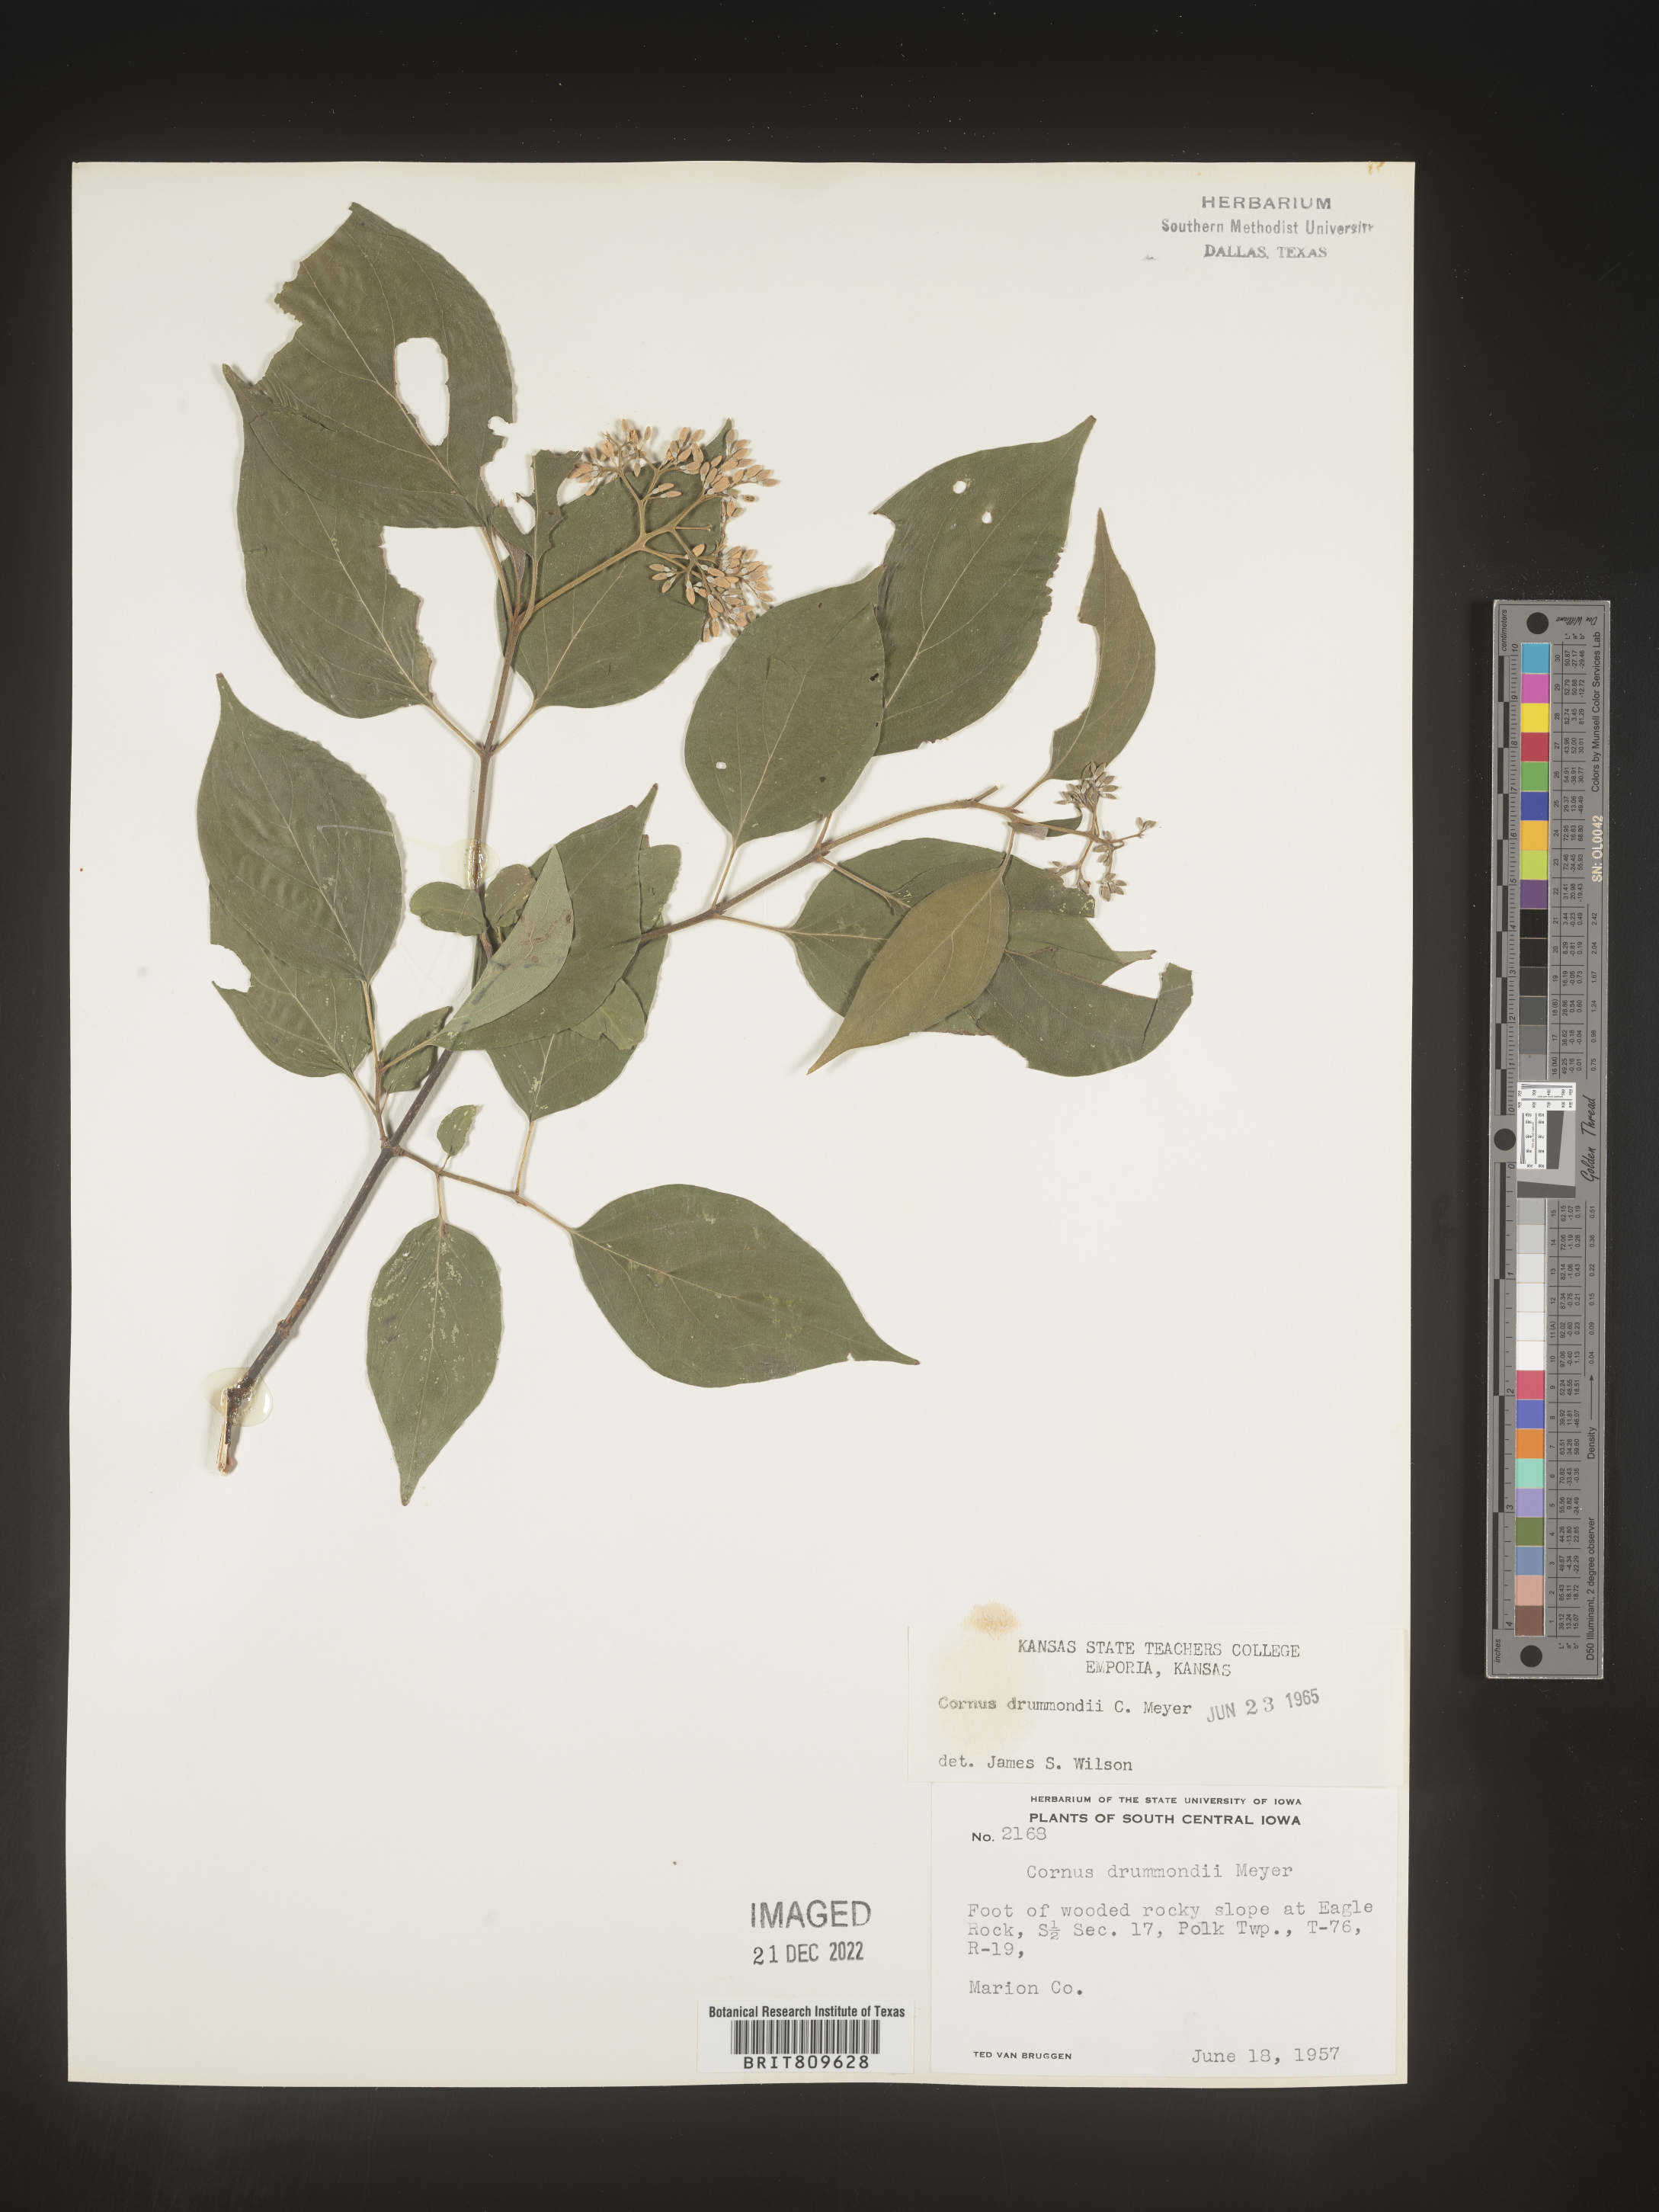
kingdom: Plantae
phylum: Tracheophyta
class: Magnoliopsida
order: Cornales
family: Cornaceae
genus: Cornus
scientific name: Cornus drummondii
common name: Rough-leaf dogwood
